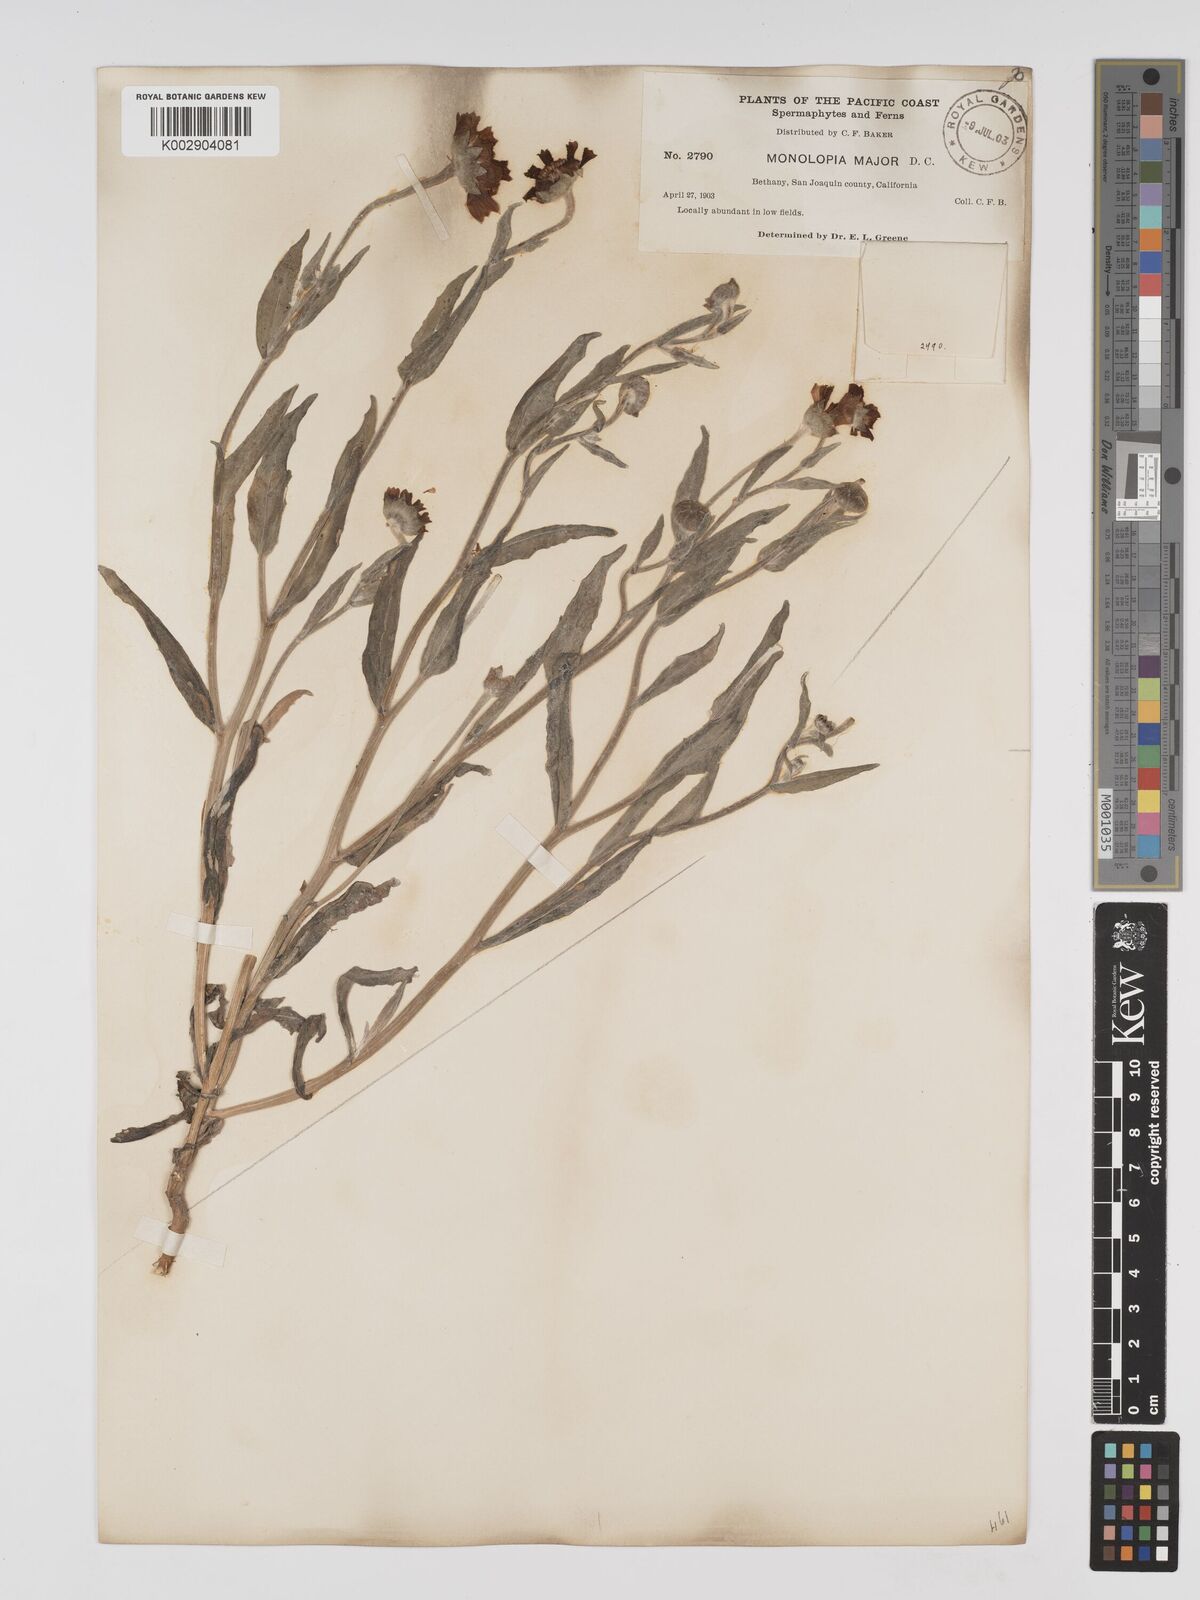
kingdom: Plantae
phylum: Tracheophyta
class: Magnoliopsida
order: Asterales
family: Asteraceae
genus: Monolopia
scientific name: Monolopia major
